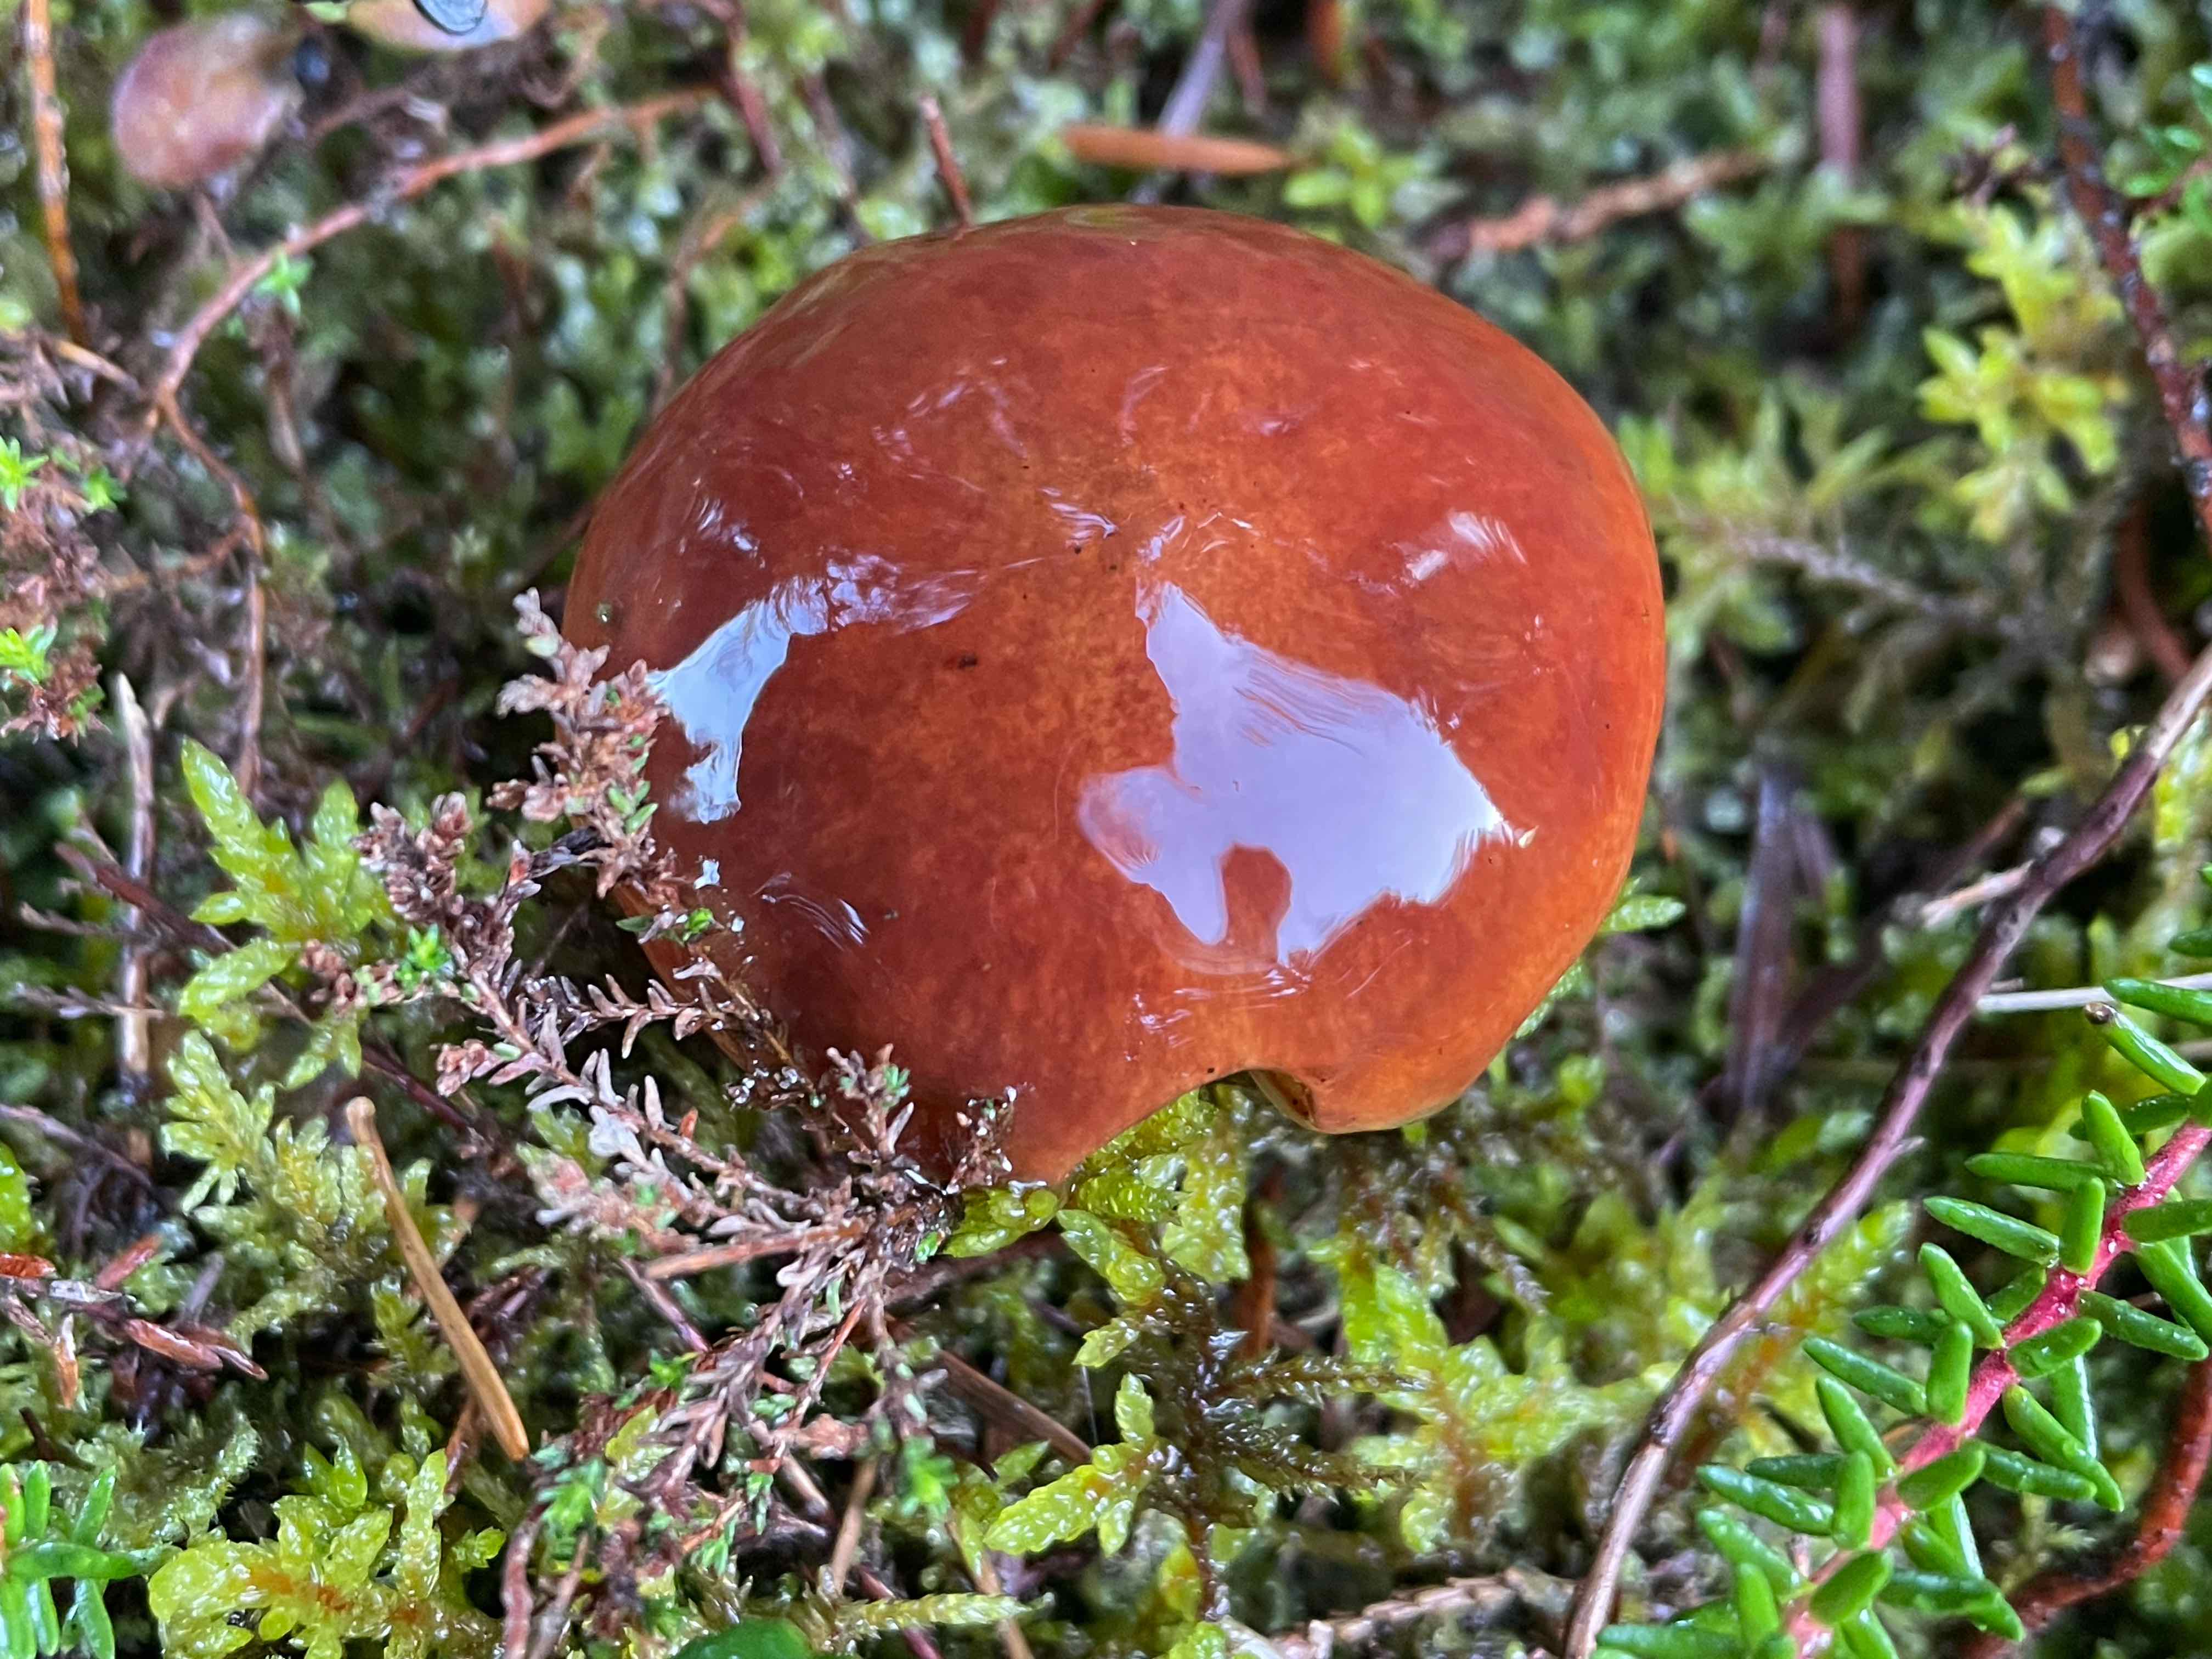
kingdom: Fungi
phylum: Basidiomycota
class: Agaricomycetes
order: Boletales
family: Suillaceae
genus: Suillus
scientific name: Suillus grevillei
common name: Larch bolete
